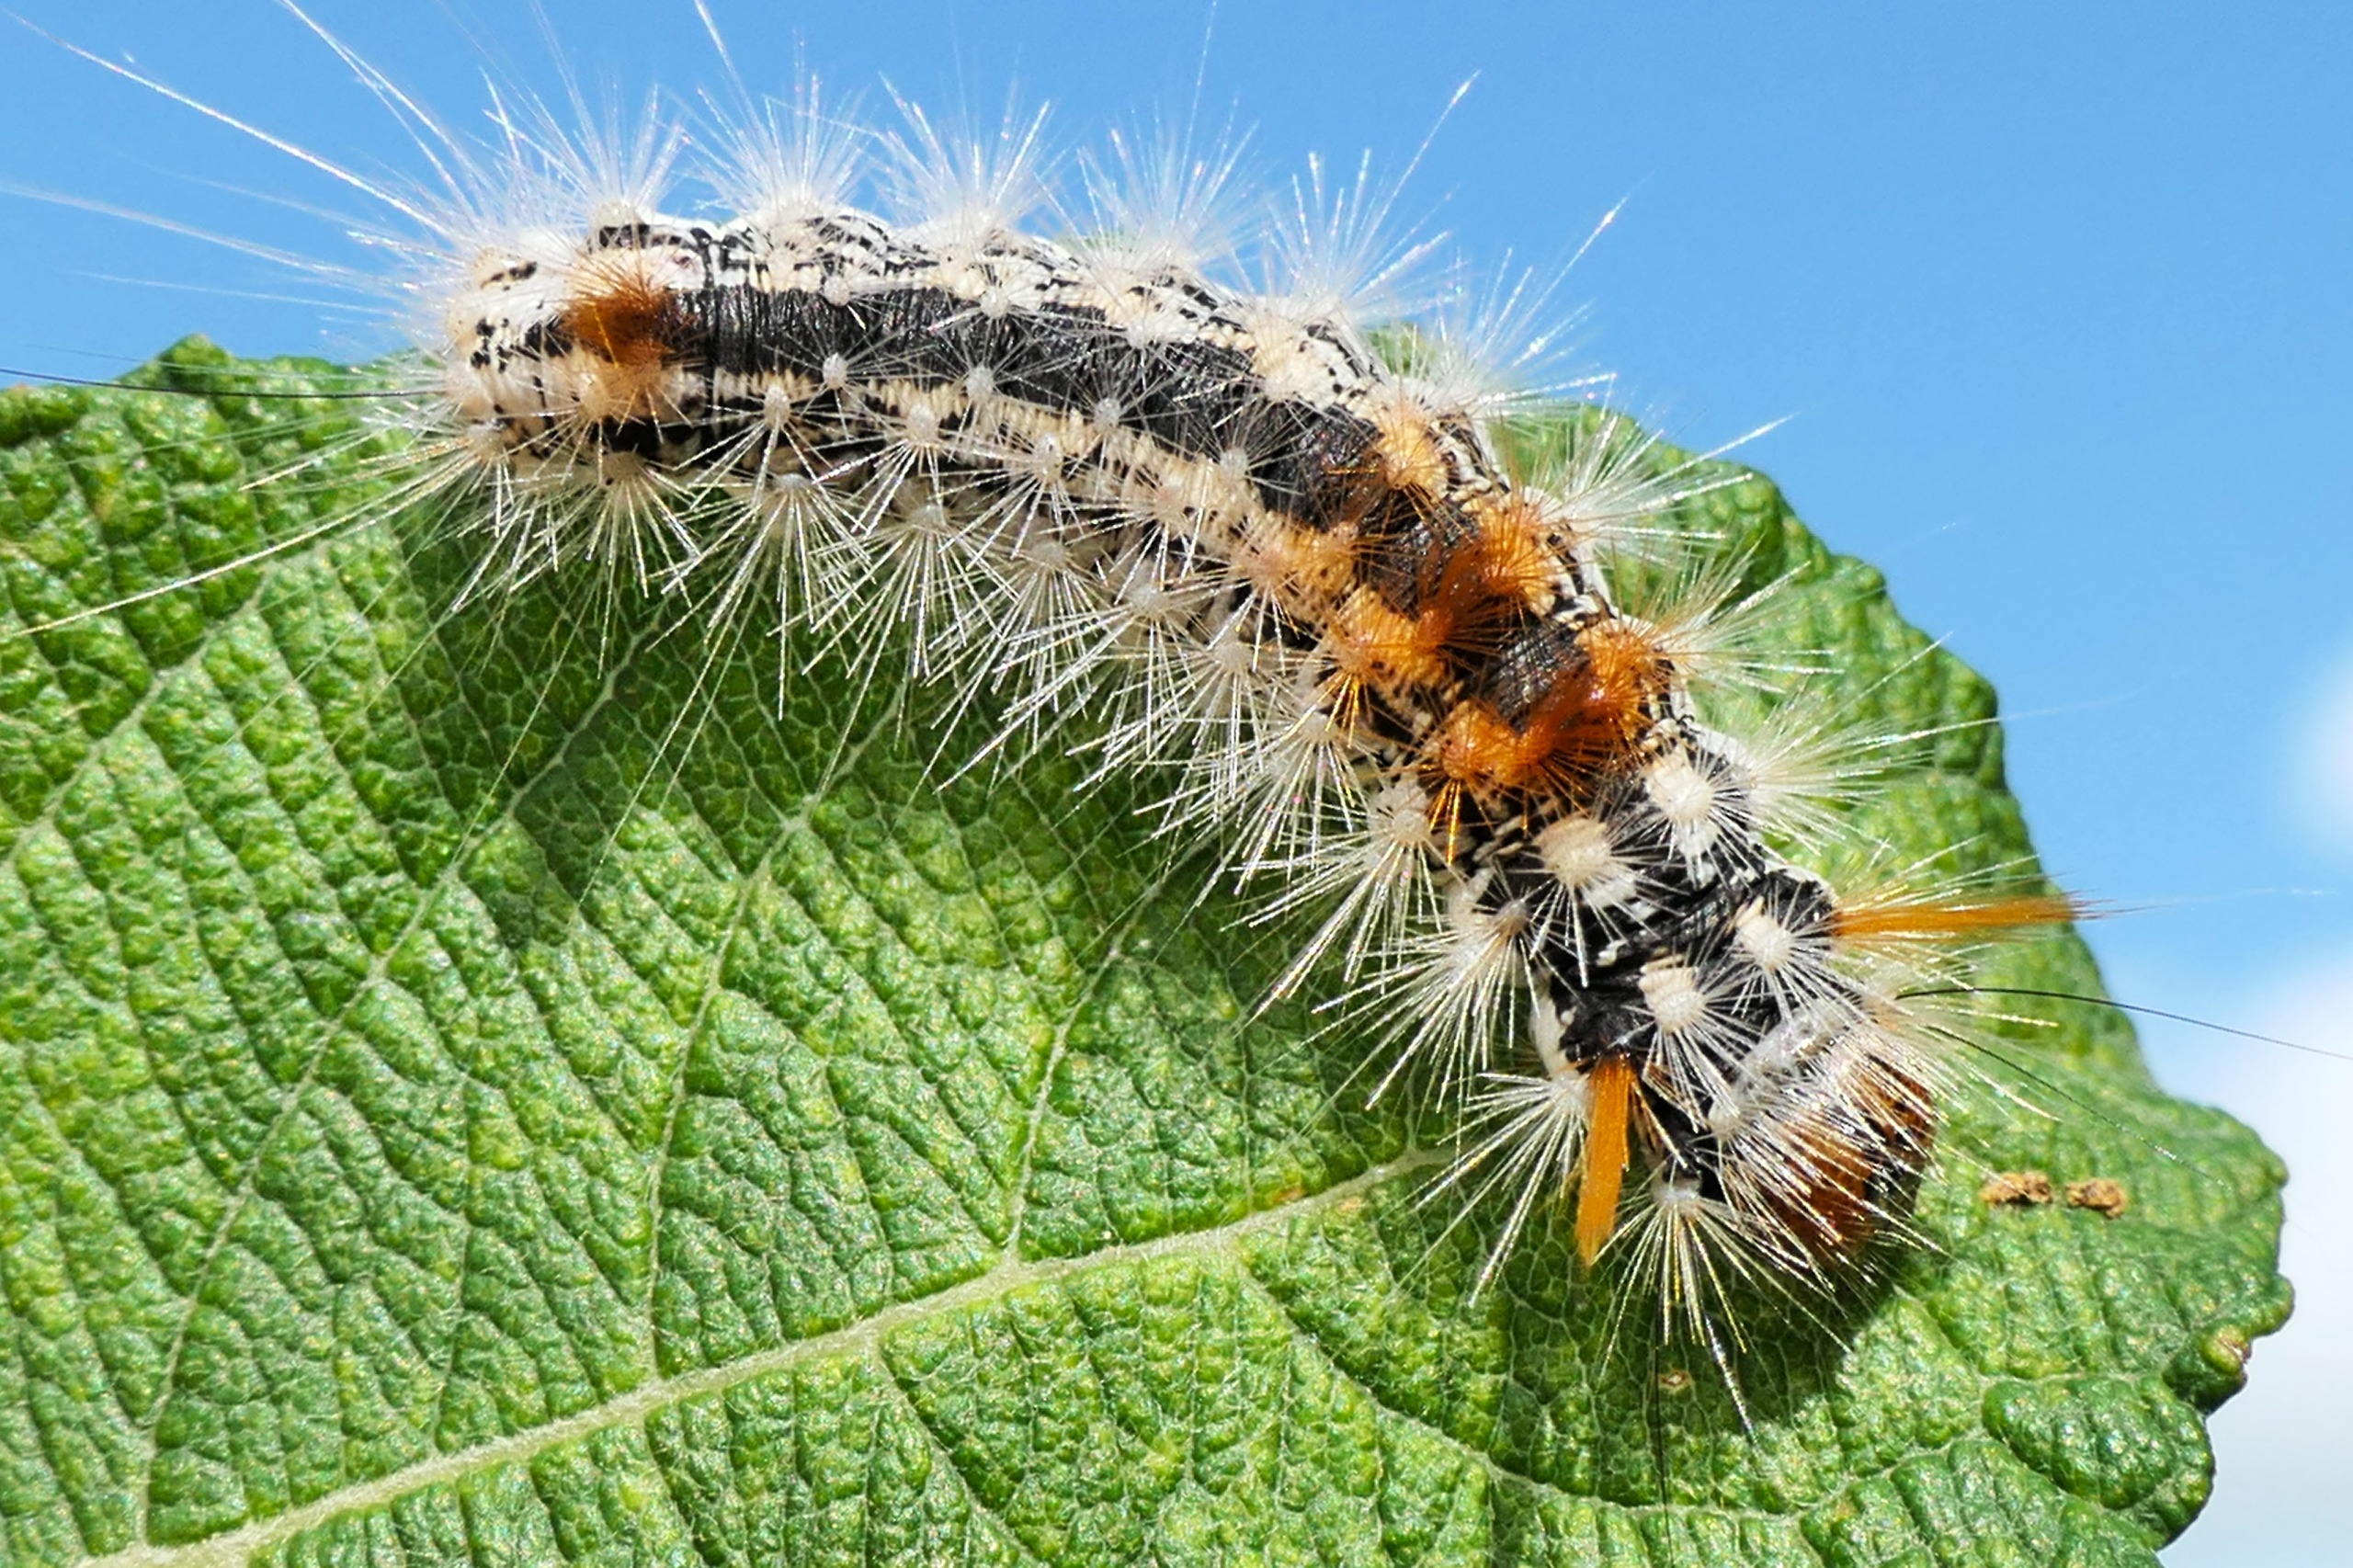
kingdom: Animalia
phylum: Arthropoda
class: Insecta
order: Lepidoptera
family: Noctuidae
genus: Colocasia
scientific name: Colocasia coryli
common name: Penselugle
